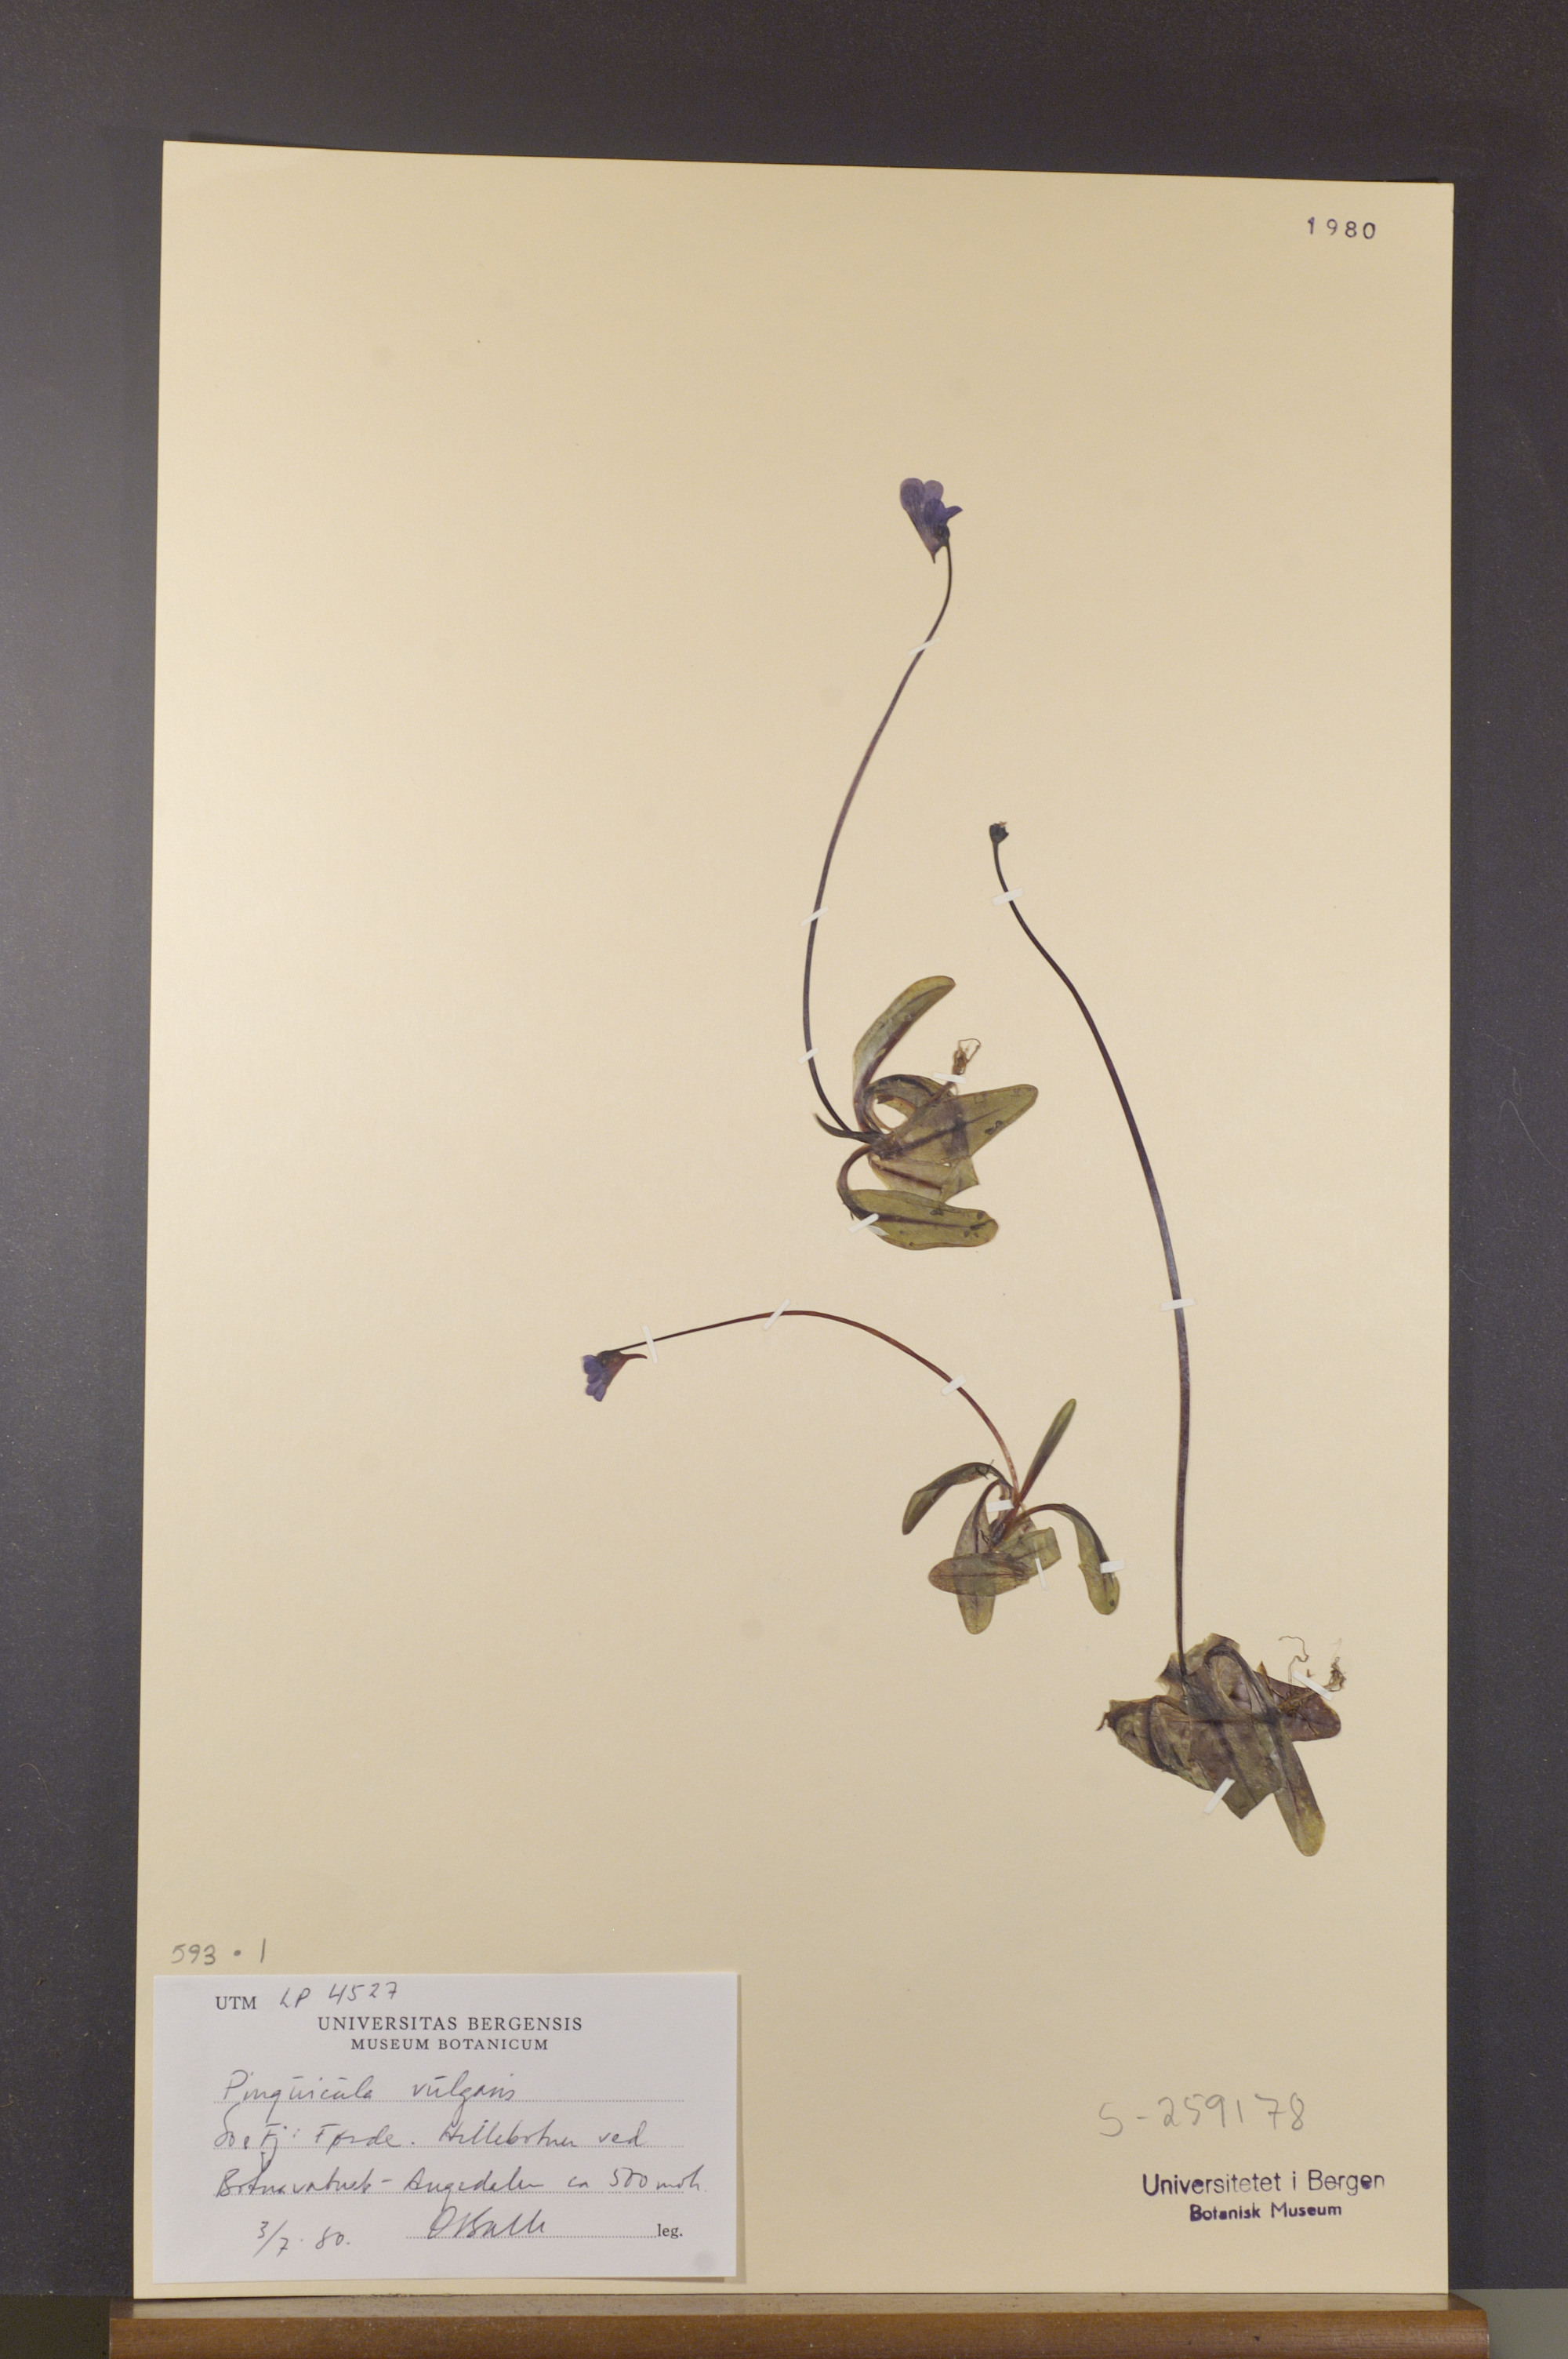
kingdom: Plantae
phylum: Tracheophyta
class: Magnoliopsida
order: Lamiales
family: Lentibulariaceae
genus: Pinguicula
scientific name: Pinguicula vulgaris
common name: Common butterwort
